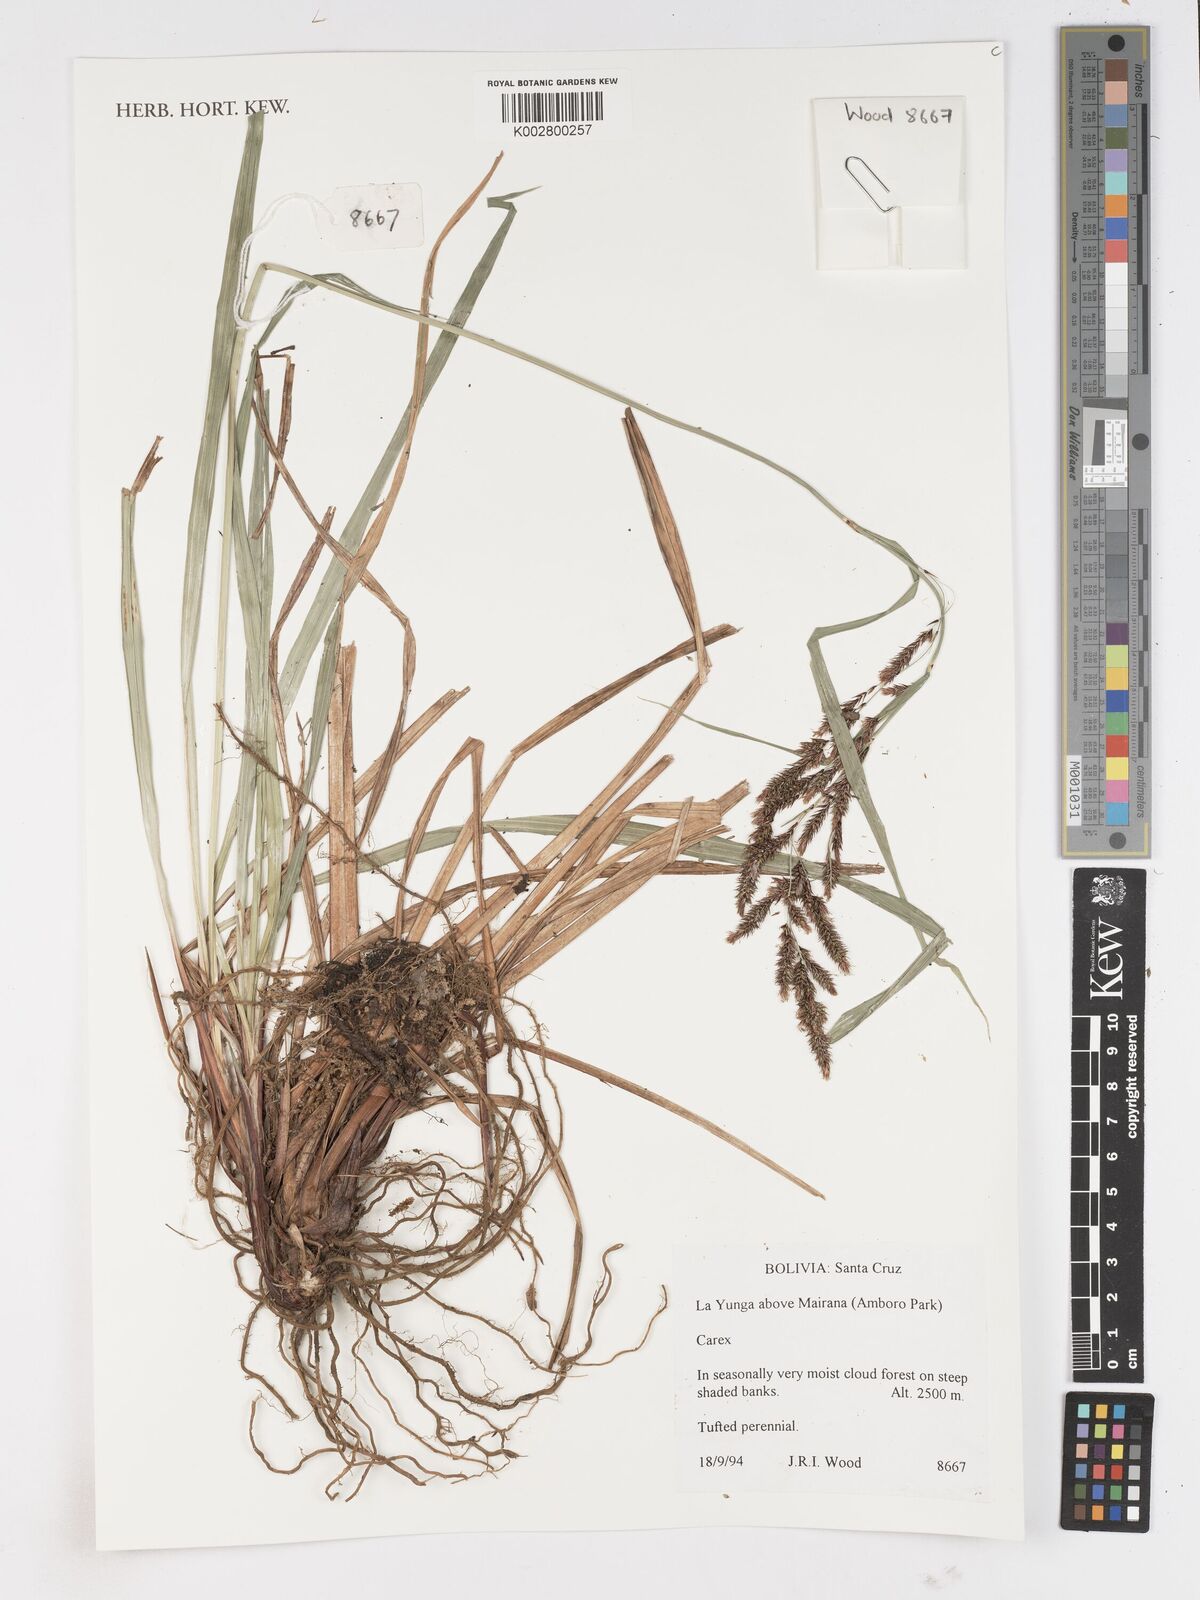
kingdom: Plantae
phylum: Tracheophyta
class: Liliopsida
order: Poales
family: Cyperaceae
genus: Carex
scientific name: Carex
